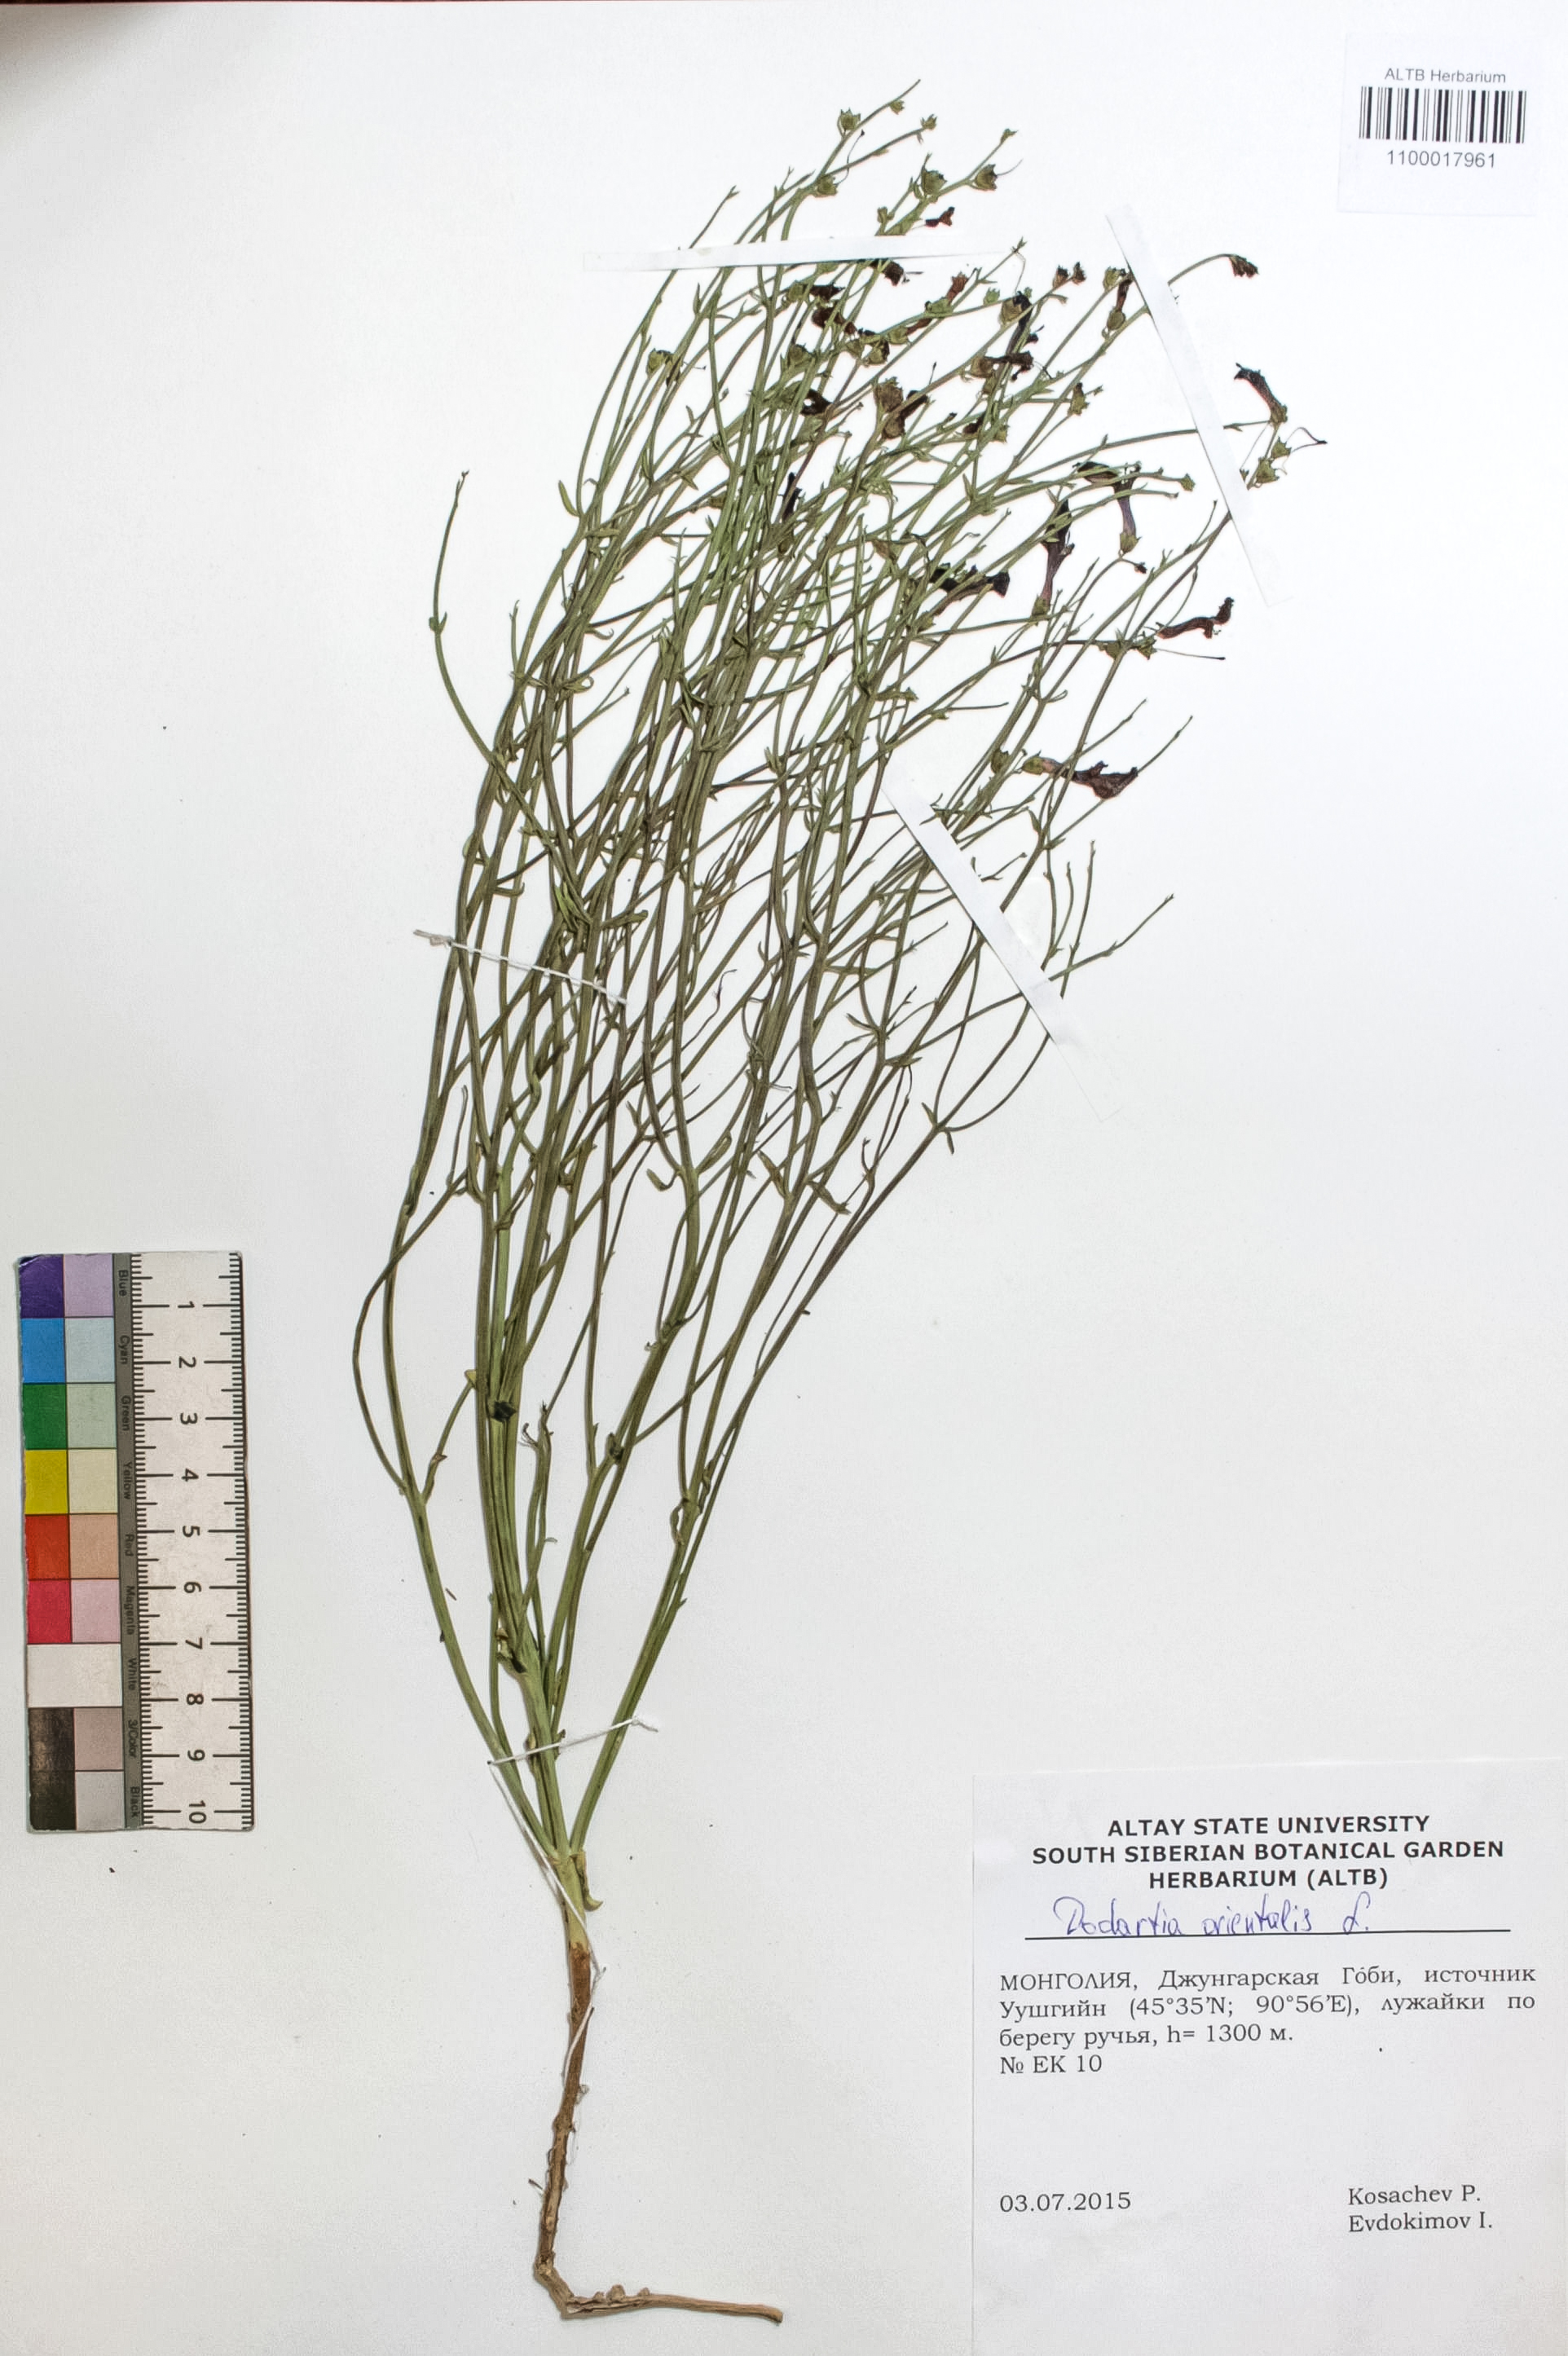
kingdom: Plantae
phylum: Tracheophyta
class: Magnoliopsida
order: Lamiales
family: Mazaceae
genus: Dodartia
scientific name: Dodartia orientalis
